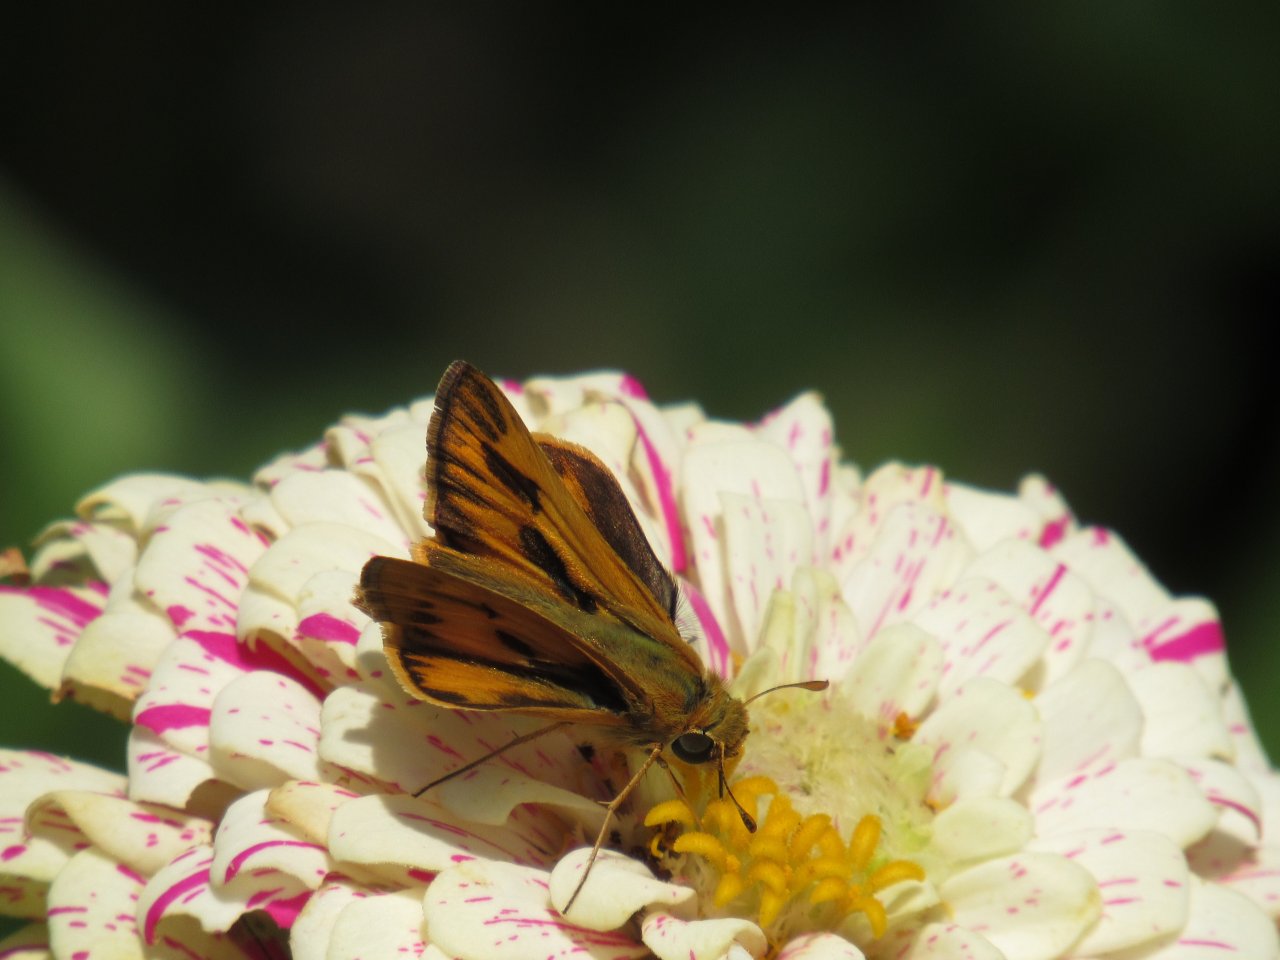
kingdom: Animalia
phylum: Arthropoda
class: Insecta
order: Lepidoptera
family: Hesperiidae
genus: Hylephila
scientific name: Hylephila phyleus
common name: Fiery Skipper
